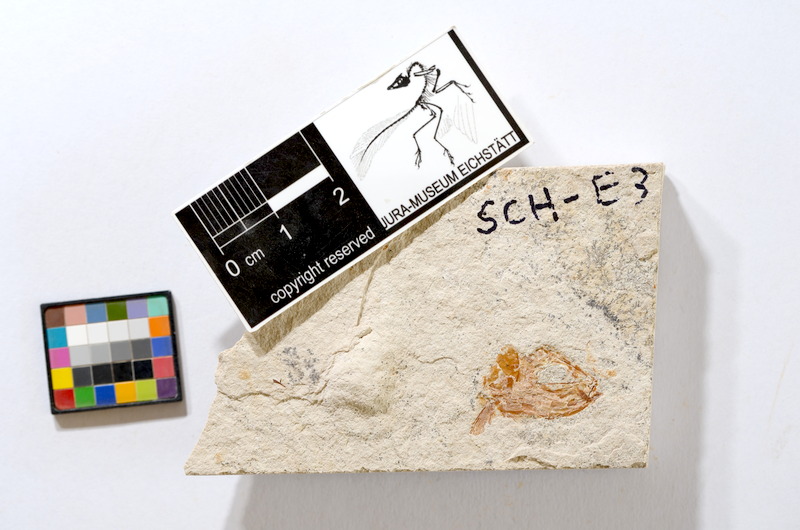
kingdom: Animalia
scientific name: Animalia
